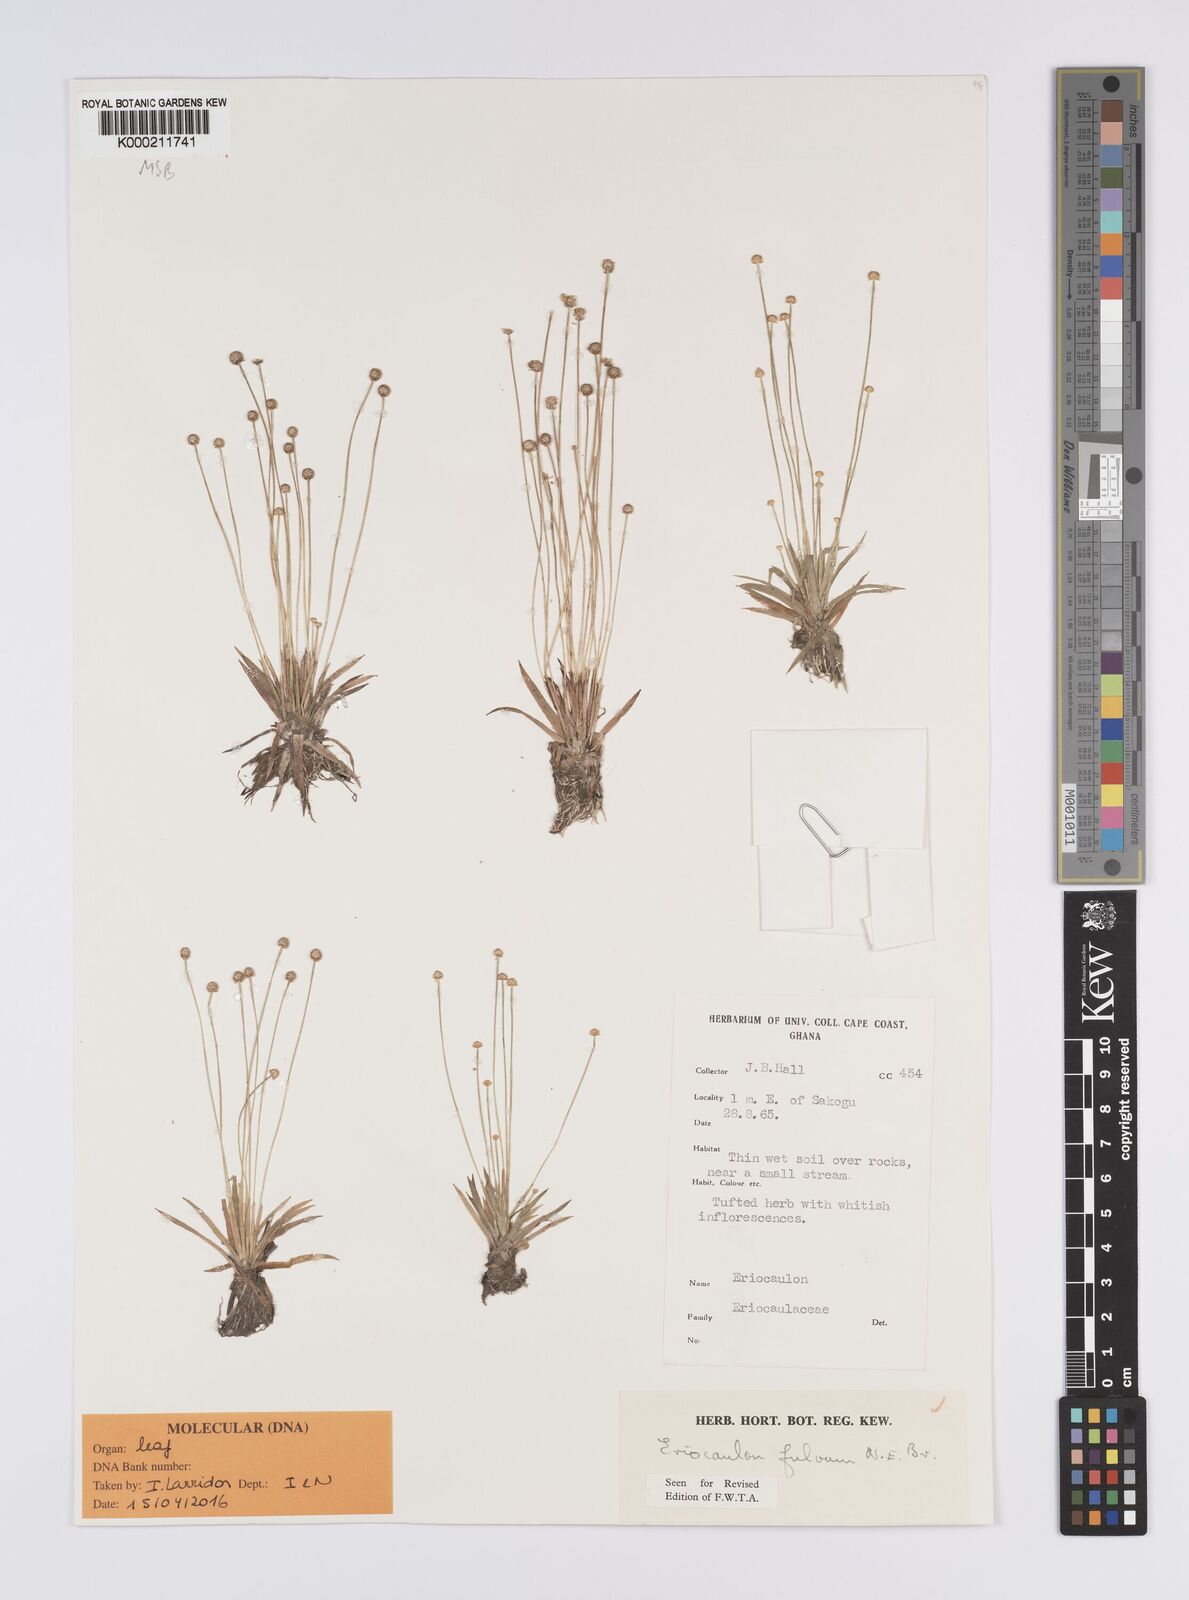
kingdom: Plantae
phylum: Tracheophyta
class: Liliopsida
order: Poales
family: Eriocaulaceae
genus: Eriocaulon
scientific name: Eriocaulon fulvum
